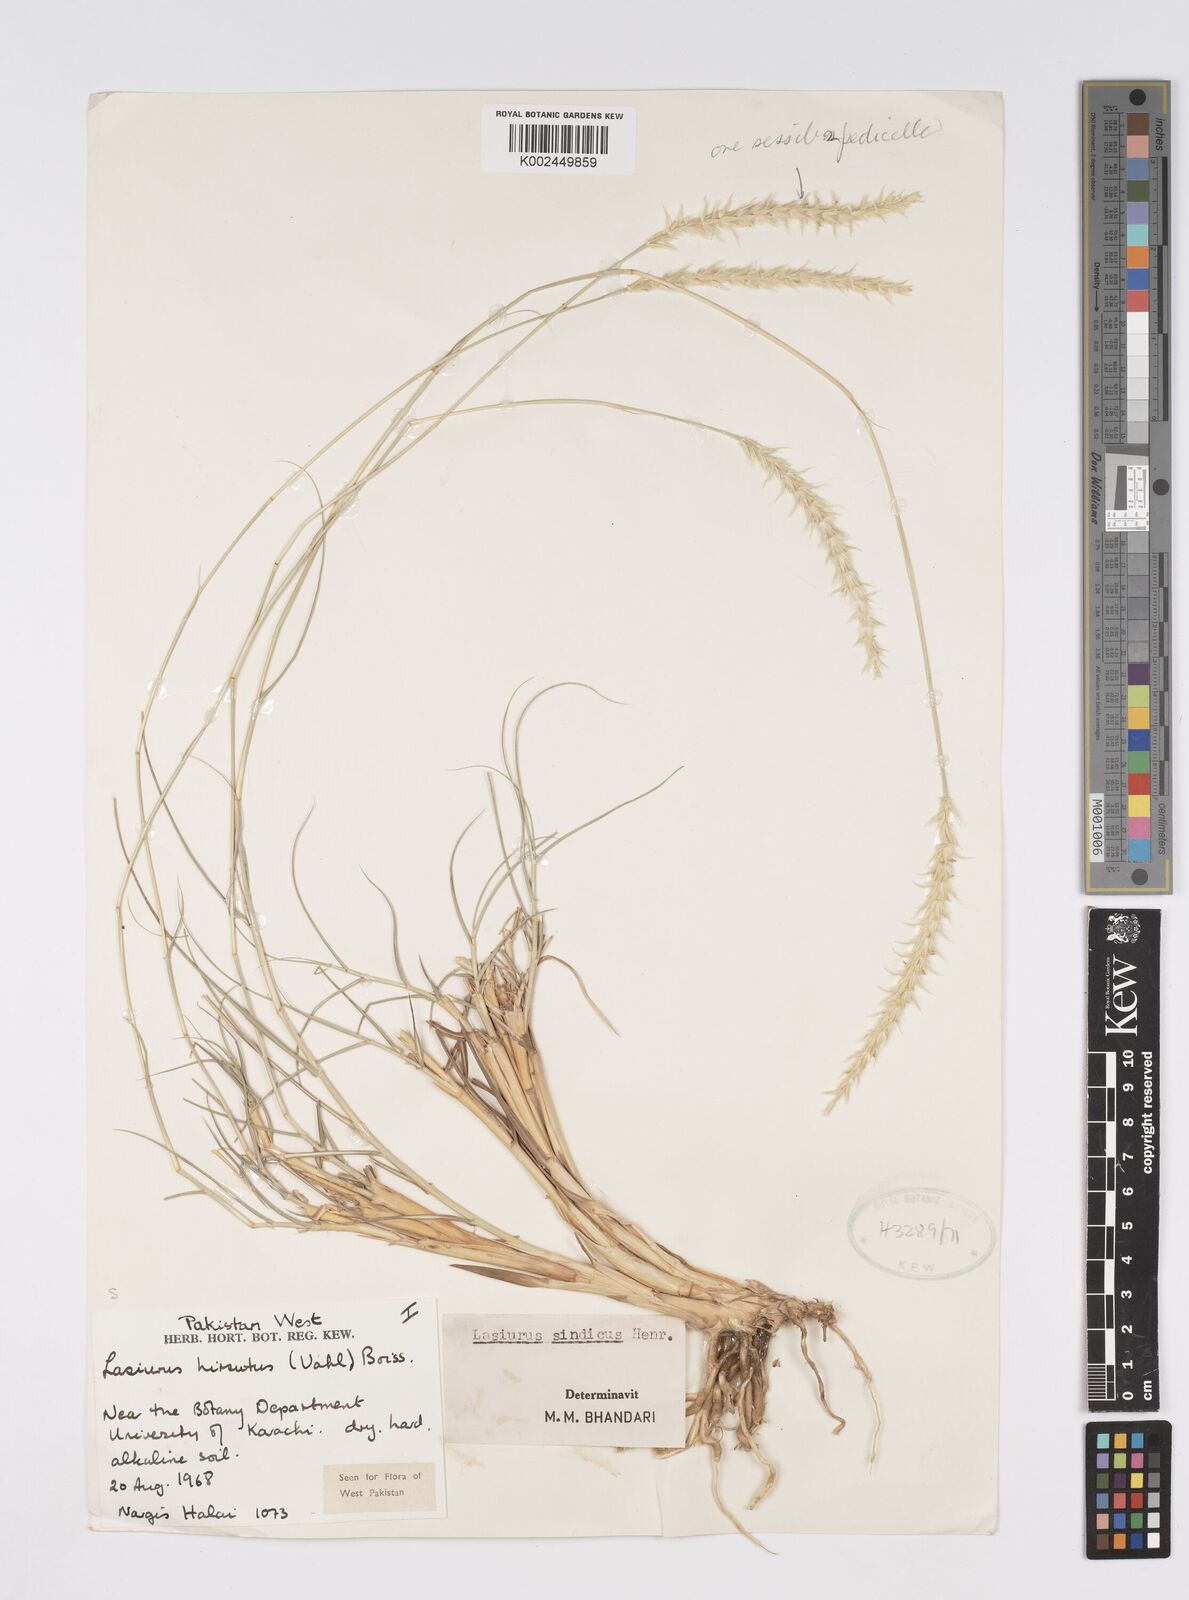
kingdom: Plantae
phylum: Tracheophyta
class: Liliopsida
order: Poales
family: Poaceae
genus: Lasiurus
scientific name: Lasiurus scindicus
